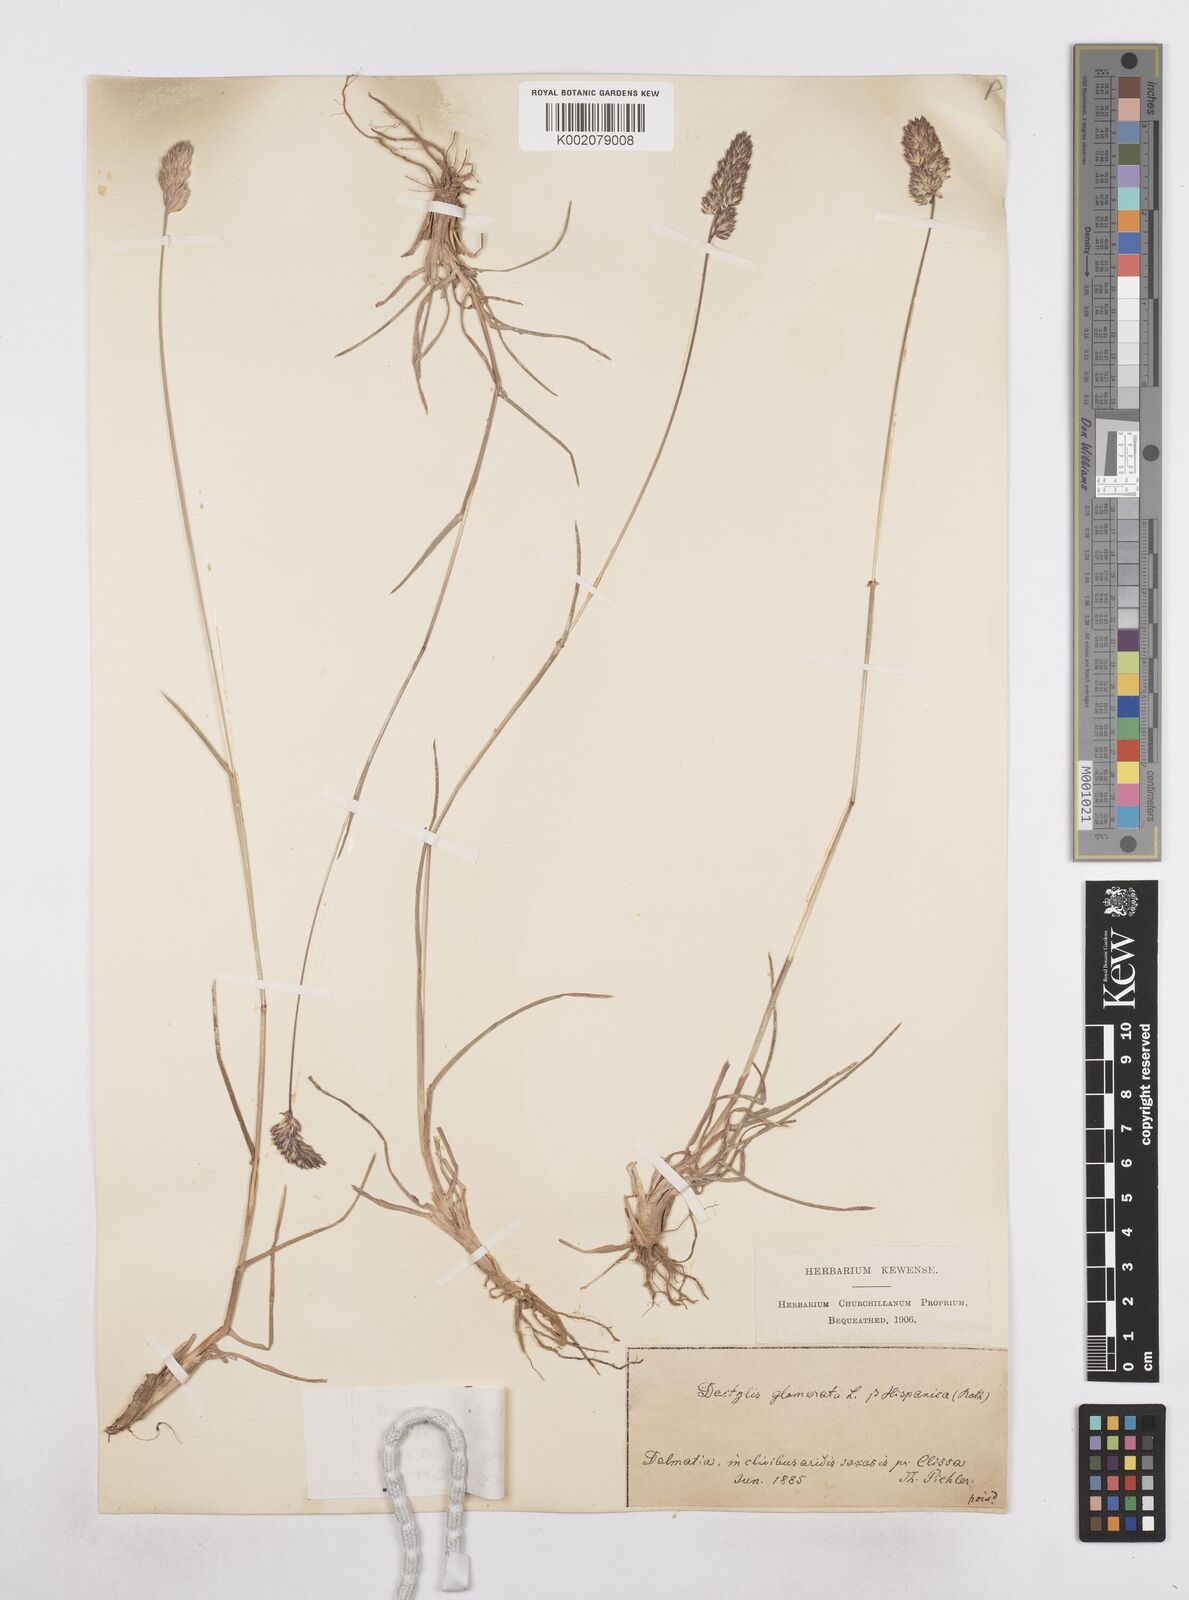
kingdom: Plantae
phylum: Tracheophyta
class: Liliopsida
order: Poales
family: Poaceae
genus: Dactylis
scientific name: Dactylis glomerata
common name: Orchardgrass
